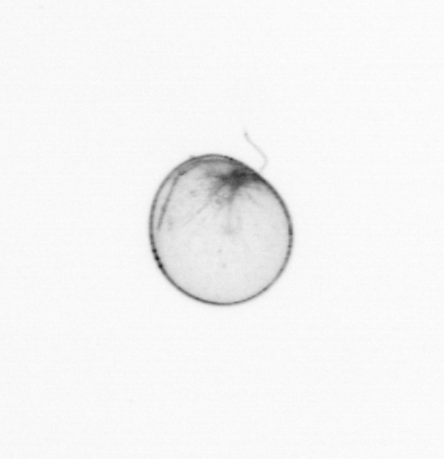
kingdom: Chromista
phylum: Myzozoa
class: Dinophyceae
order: Noctilucales
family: Noctilucaceae
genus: Noctiluca
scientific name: Noctiluca scintillans
